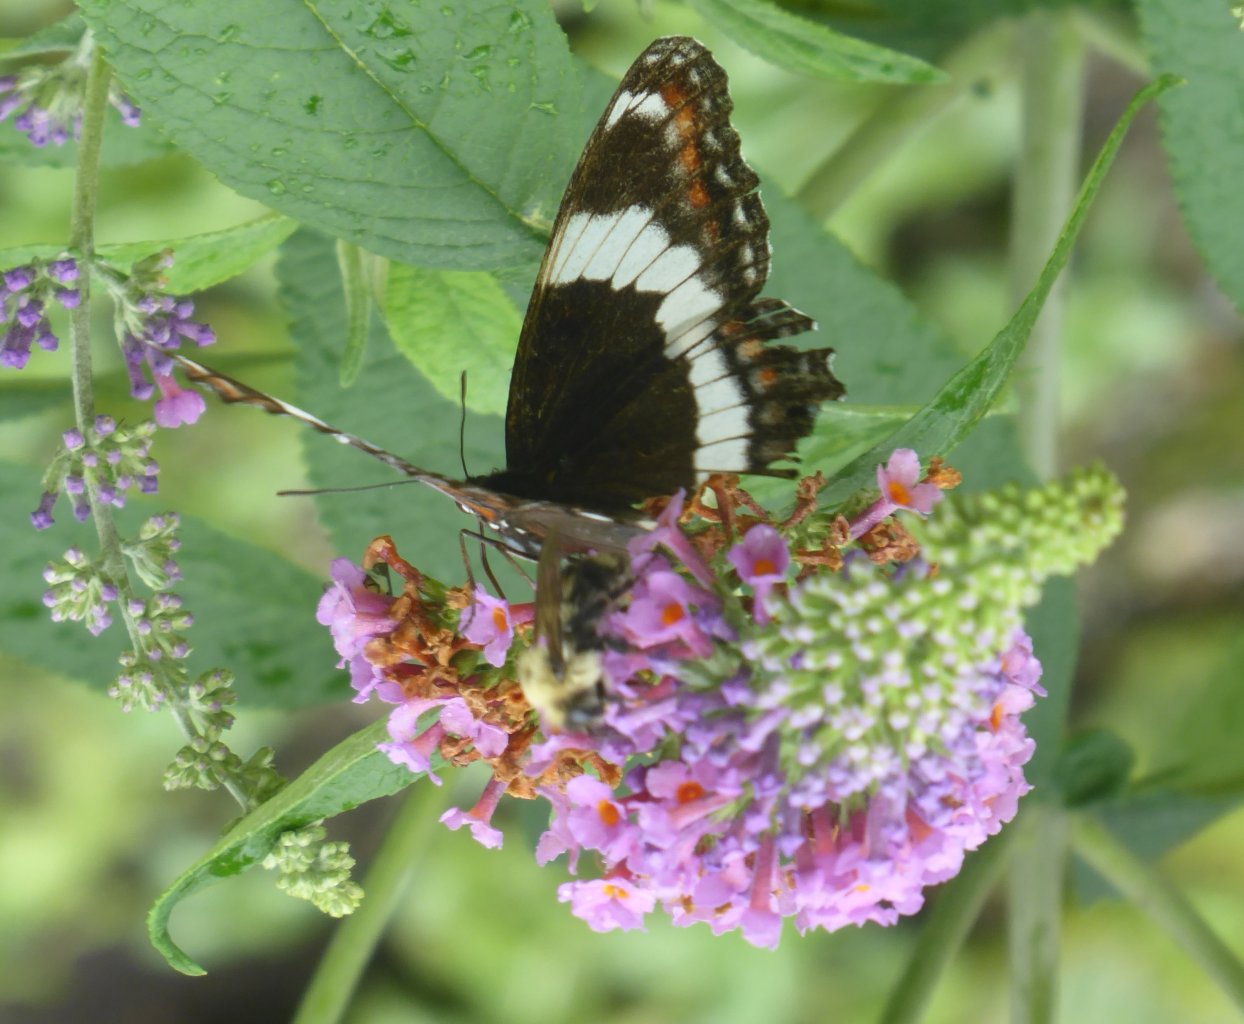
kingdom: Animalia
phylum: Arthropoda
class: Insecta
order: Lepidoptera
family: Nymphalidae
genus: Limenitis
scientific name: Limenitis arthemis
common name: Red-spotted Admiral
